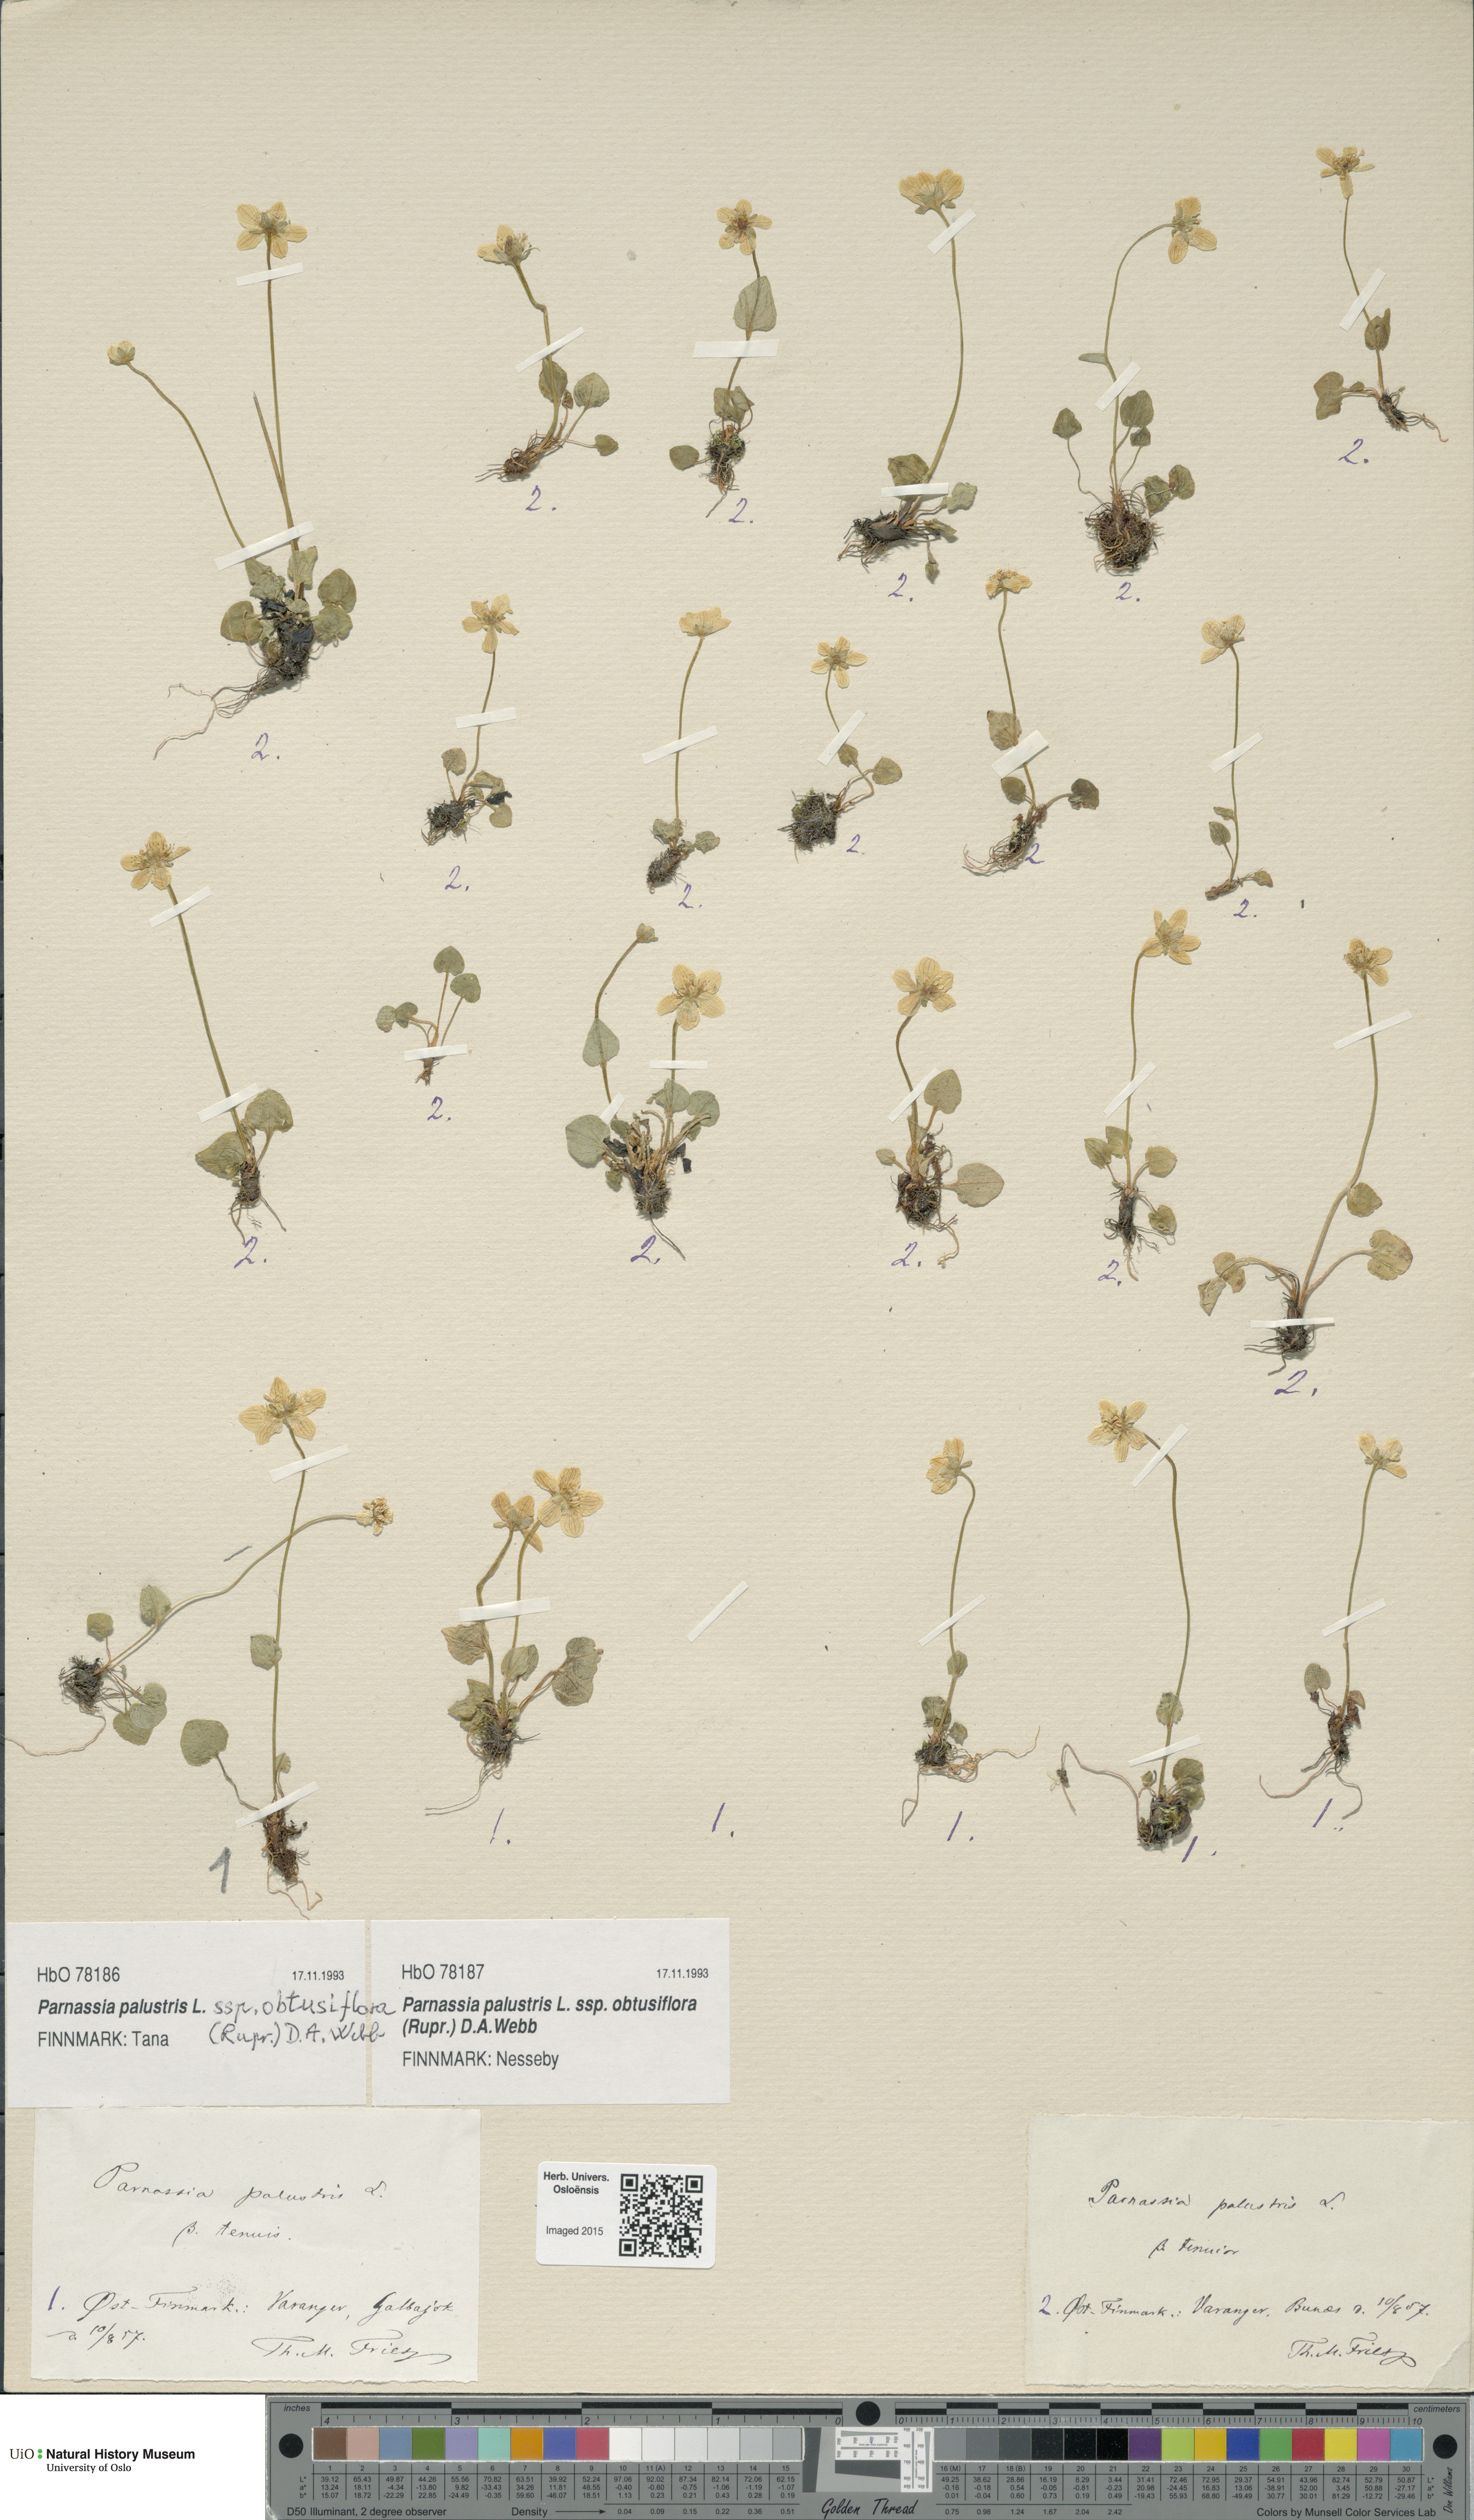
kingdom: Plantae
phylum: Tracheophyta
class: Magnoliopsida
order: Celastrales
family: Parnassiaceae
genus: Parnassia
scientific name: Parnassia palustris
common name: Grass-of-parnassus
